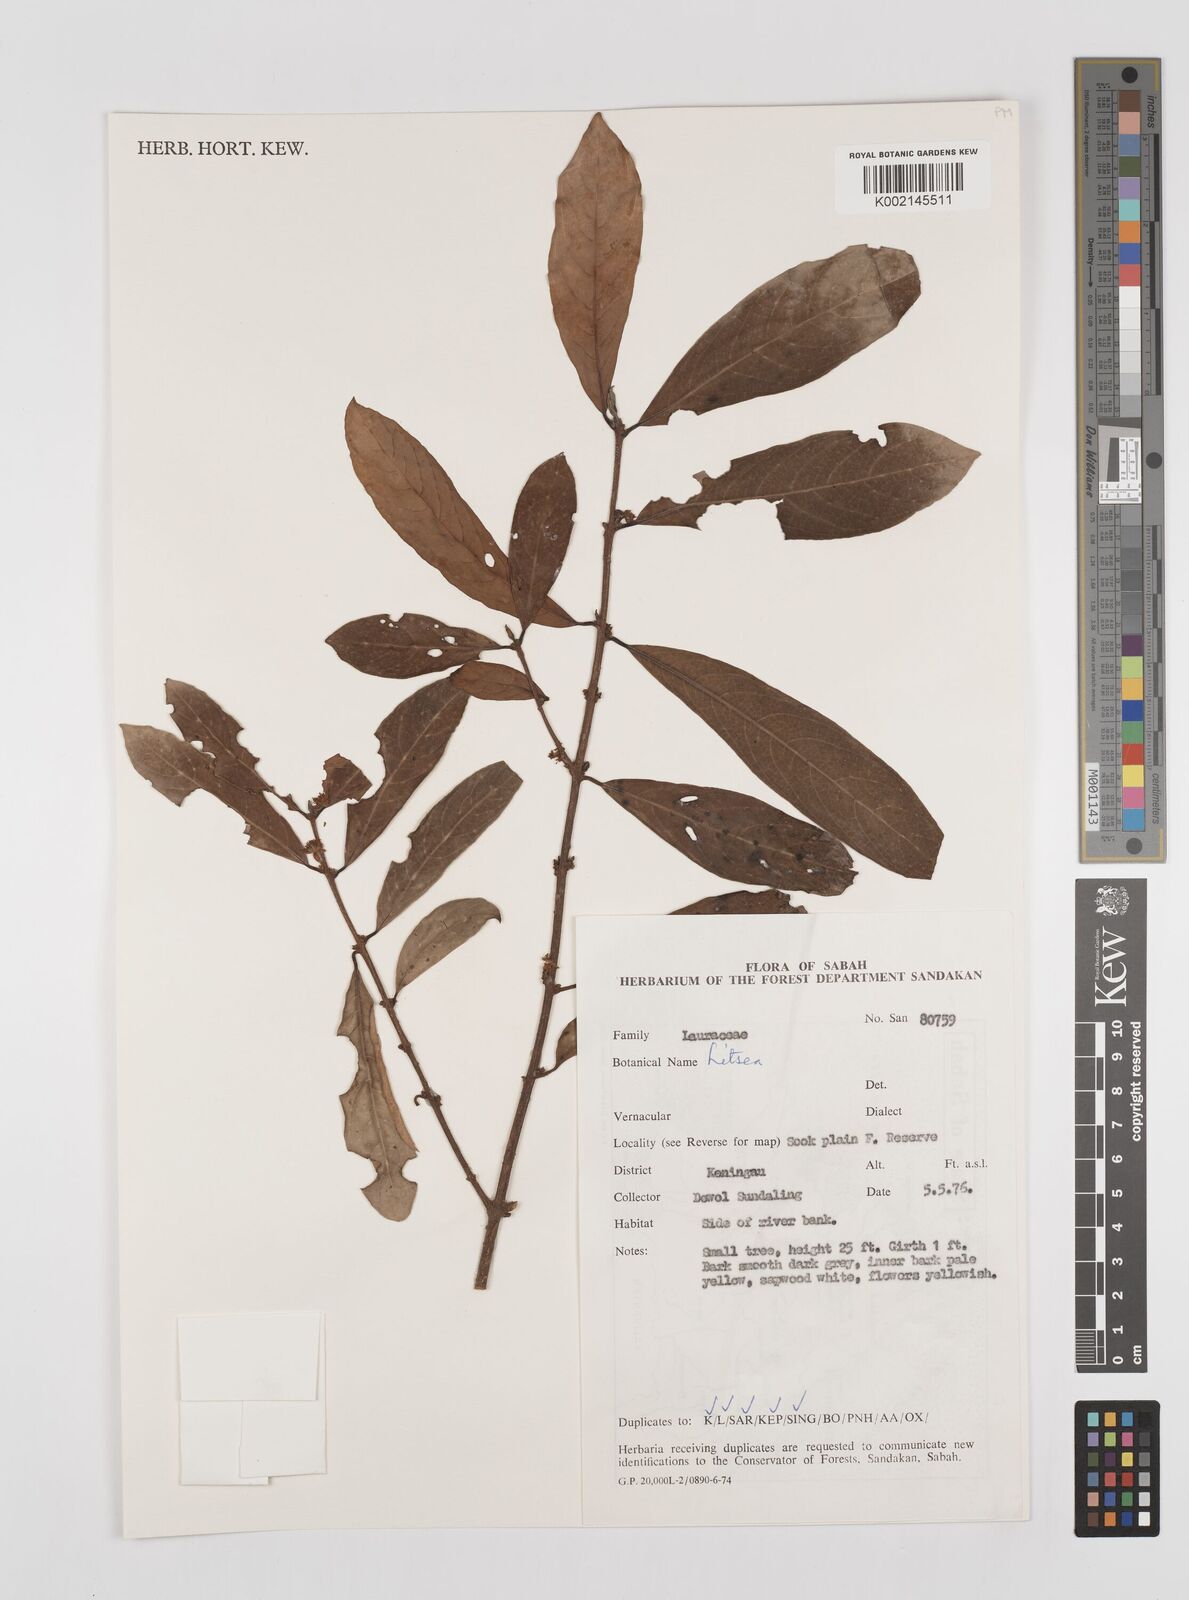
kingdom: Plantae
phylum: Tracheophyta
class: Magnoliopsida
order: Laurales
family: Lauraceae
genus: Litsea
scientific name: Litsea
